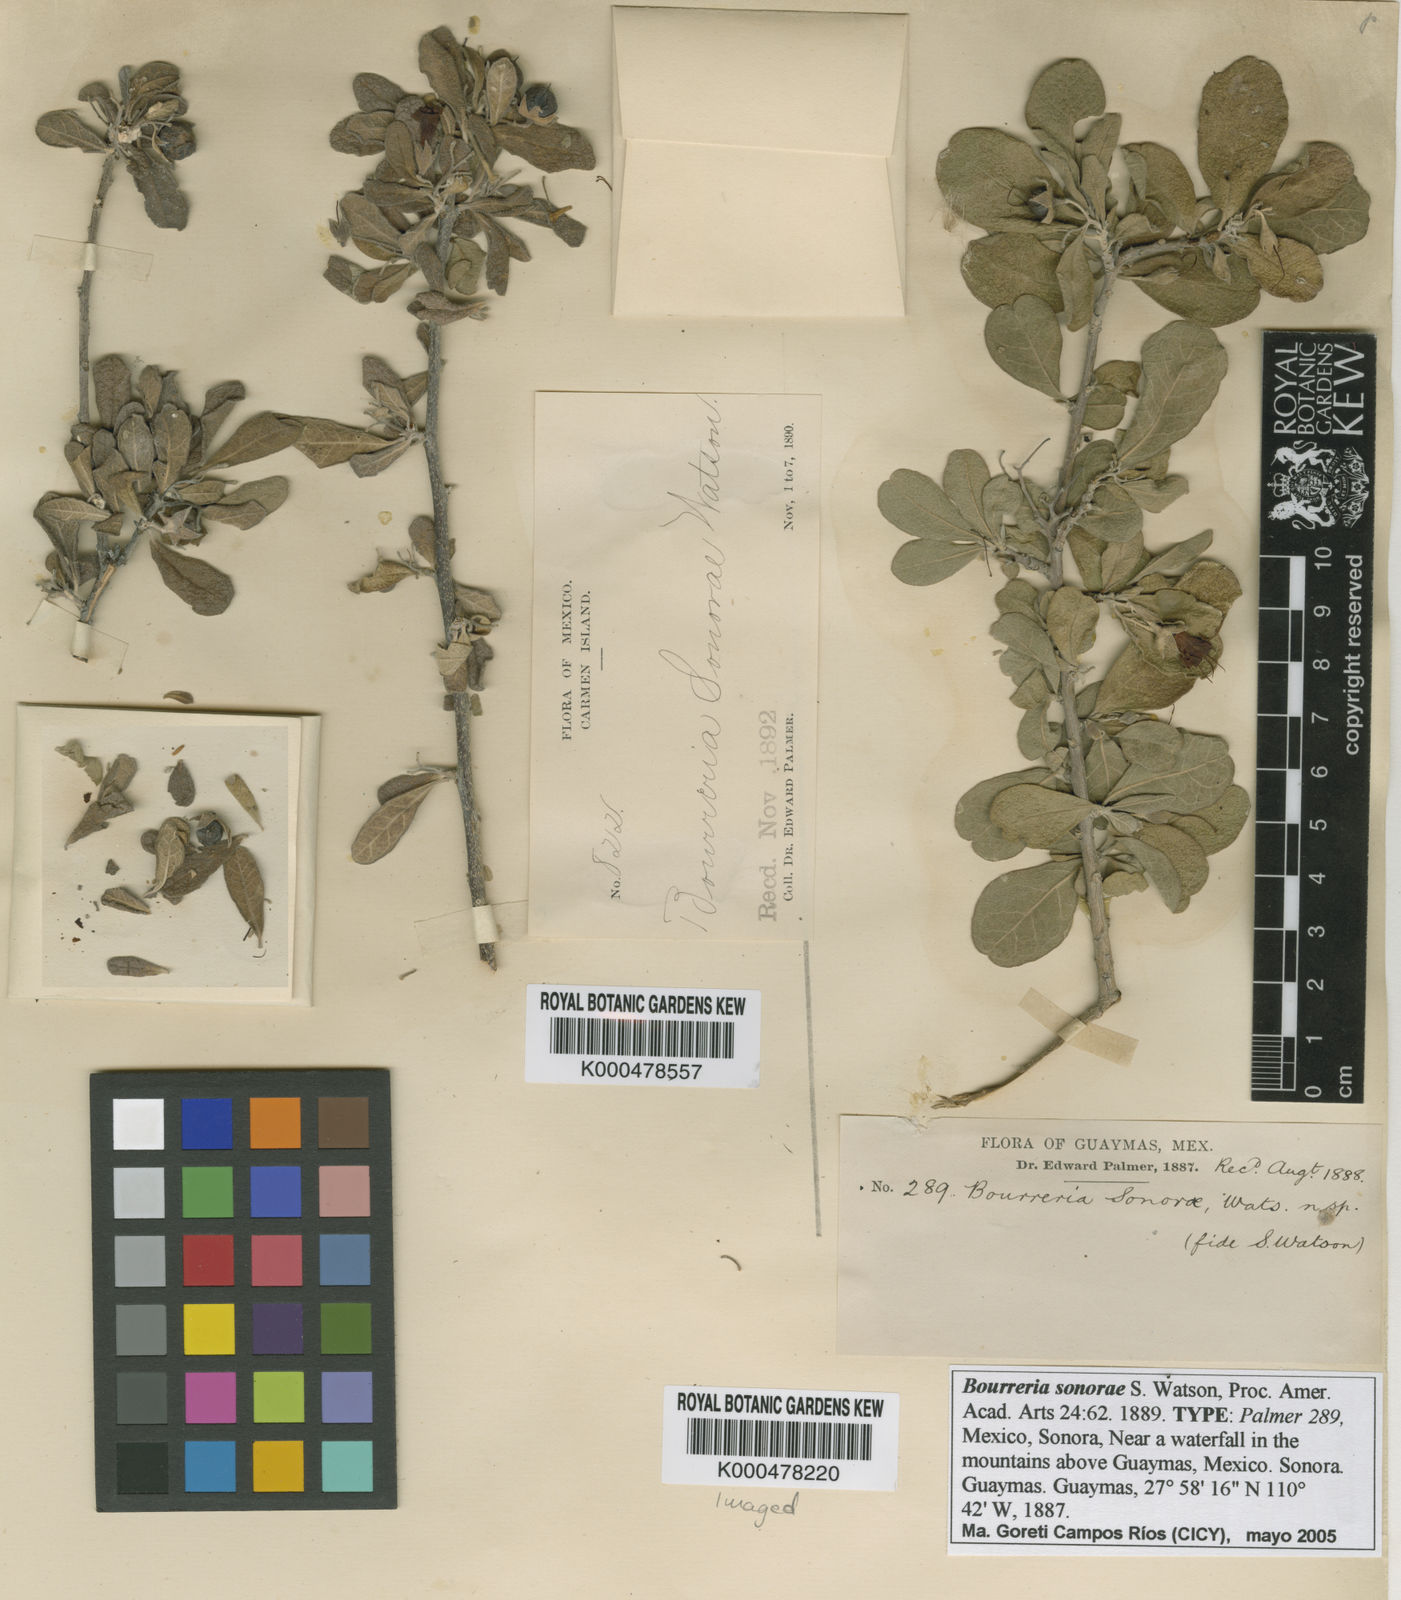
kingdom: Plantae
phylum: Tracheophyta
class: Magnoliopsida
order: Boraginales
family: Ehretiaceae
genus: Bourreria
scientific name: Bourreria sonorae
